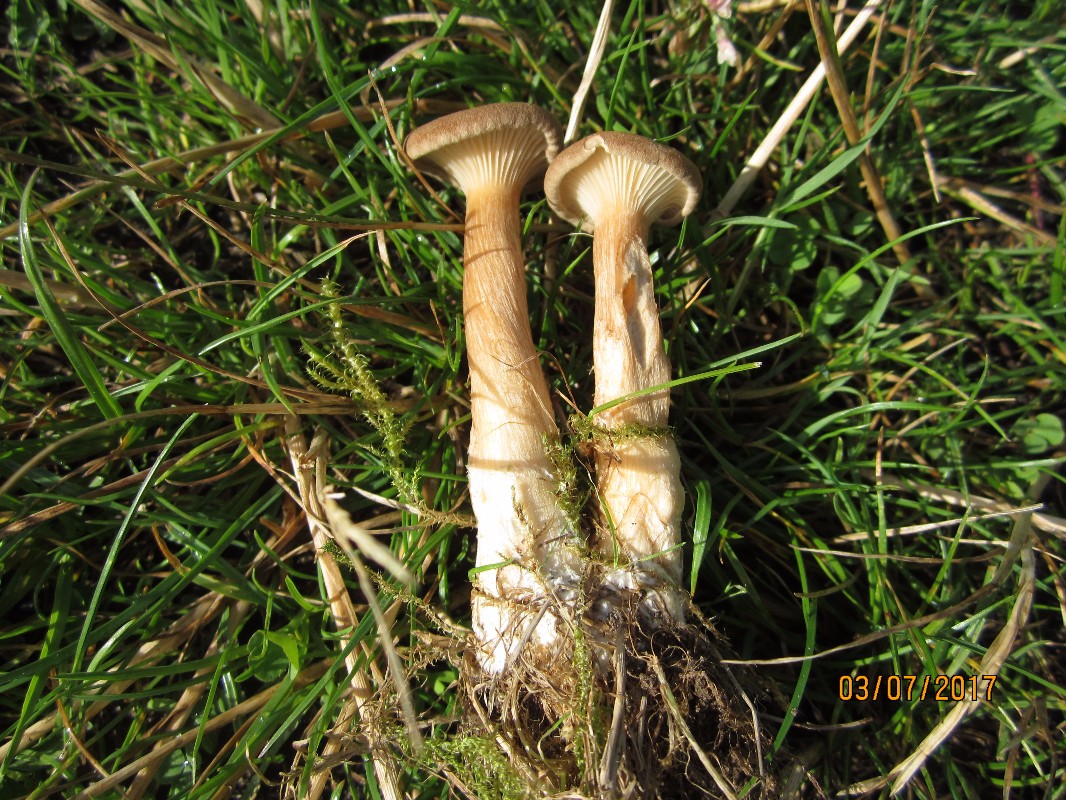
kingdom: Fungi
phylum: Basidiomycota
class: Agaricomycetes
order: Agaricales
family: Tricholomataceae
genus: Clitocybe
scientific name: Clitocybe costata
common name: brunstokket tragthat
